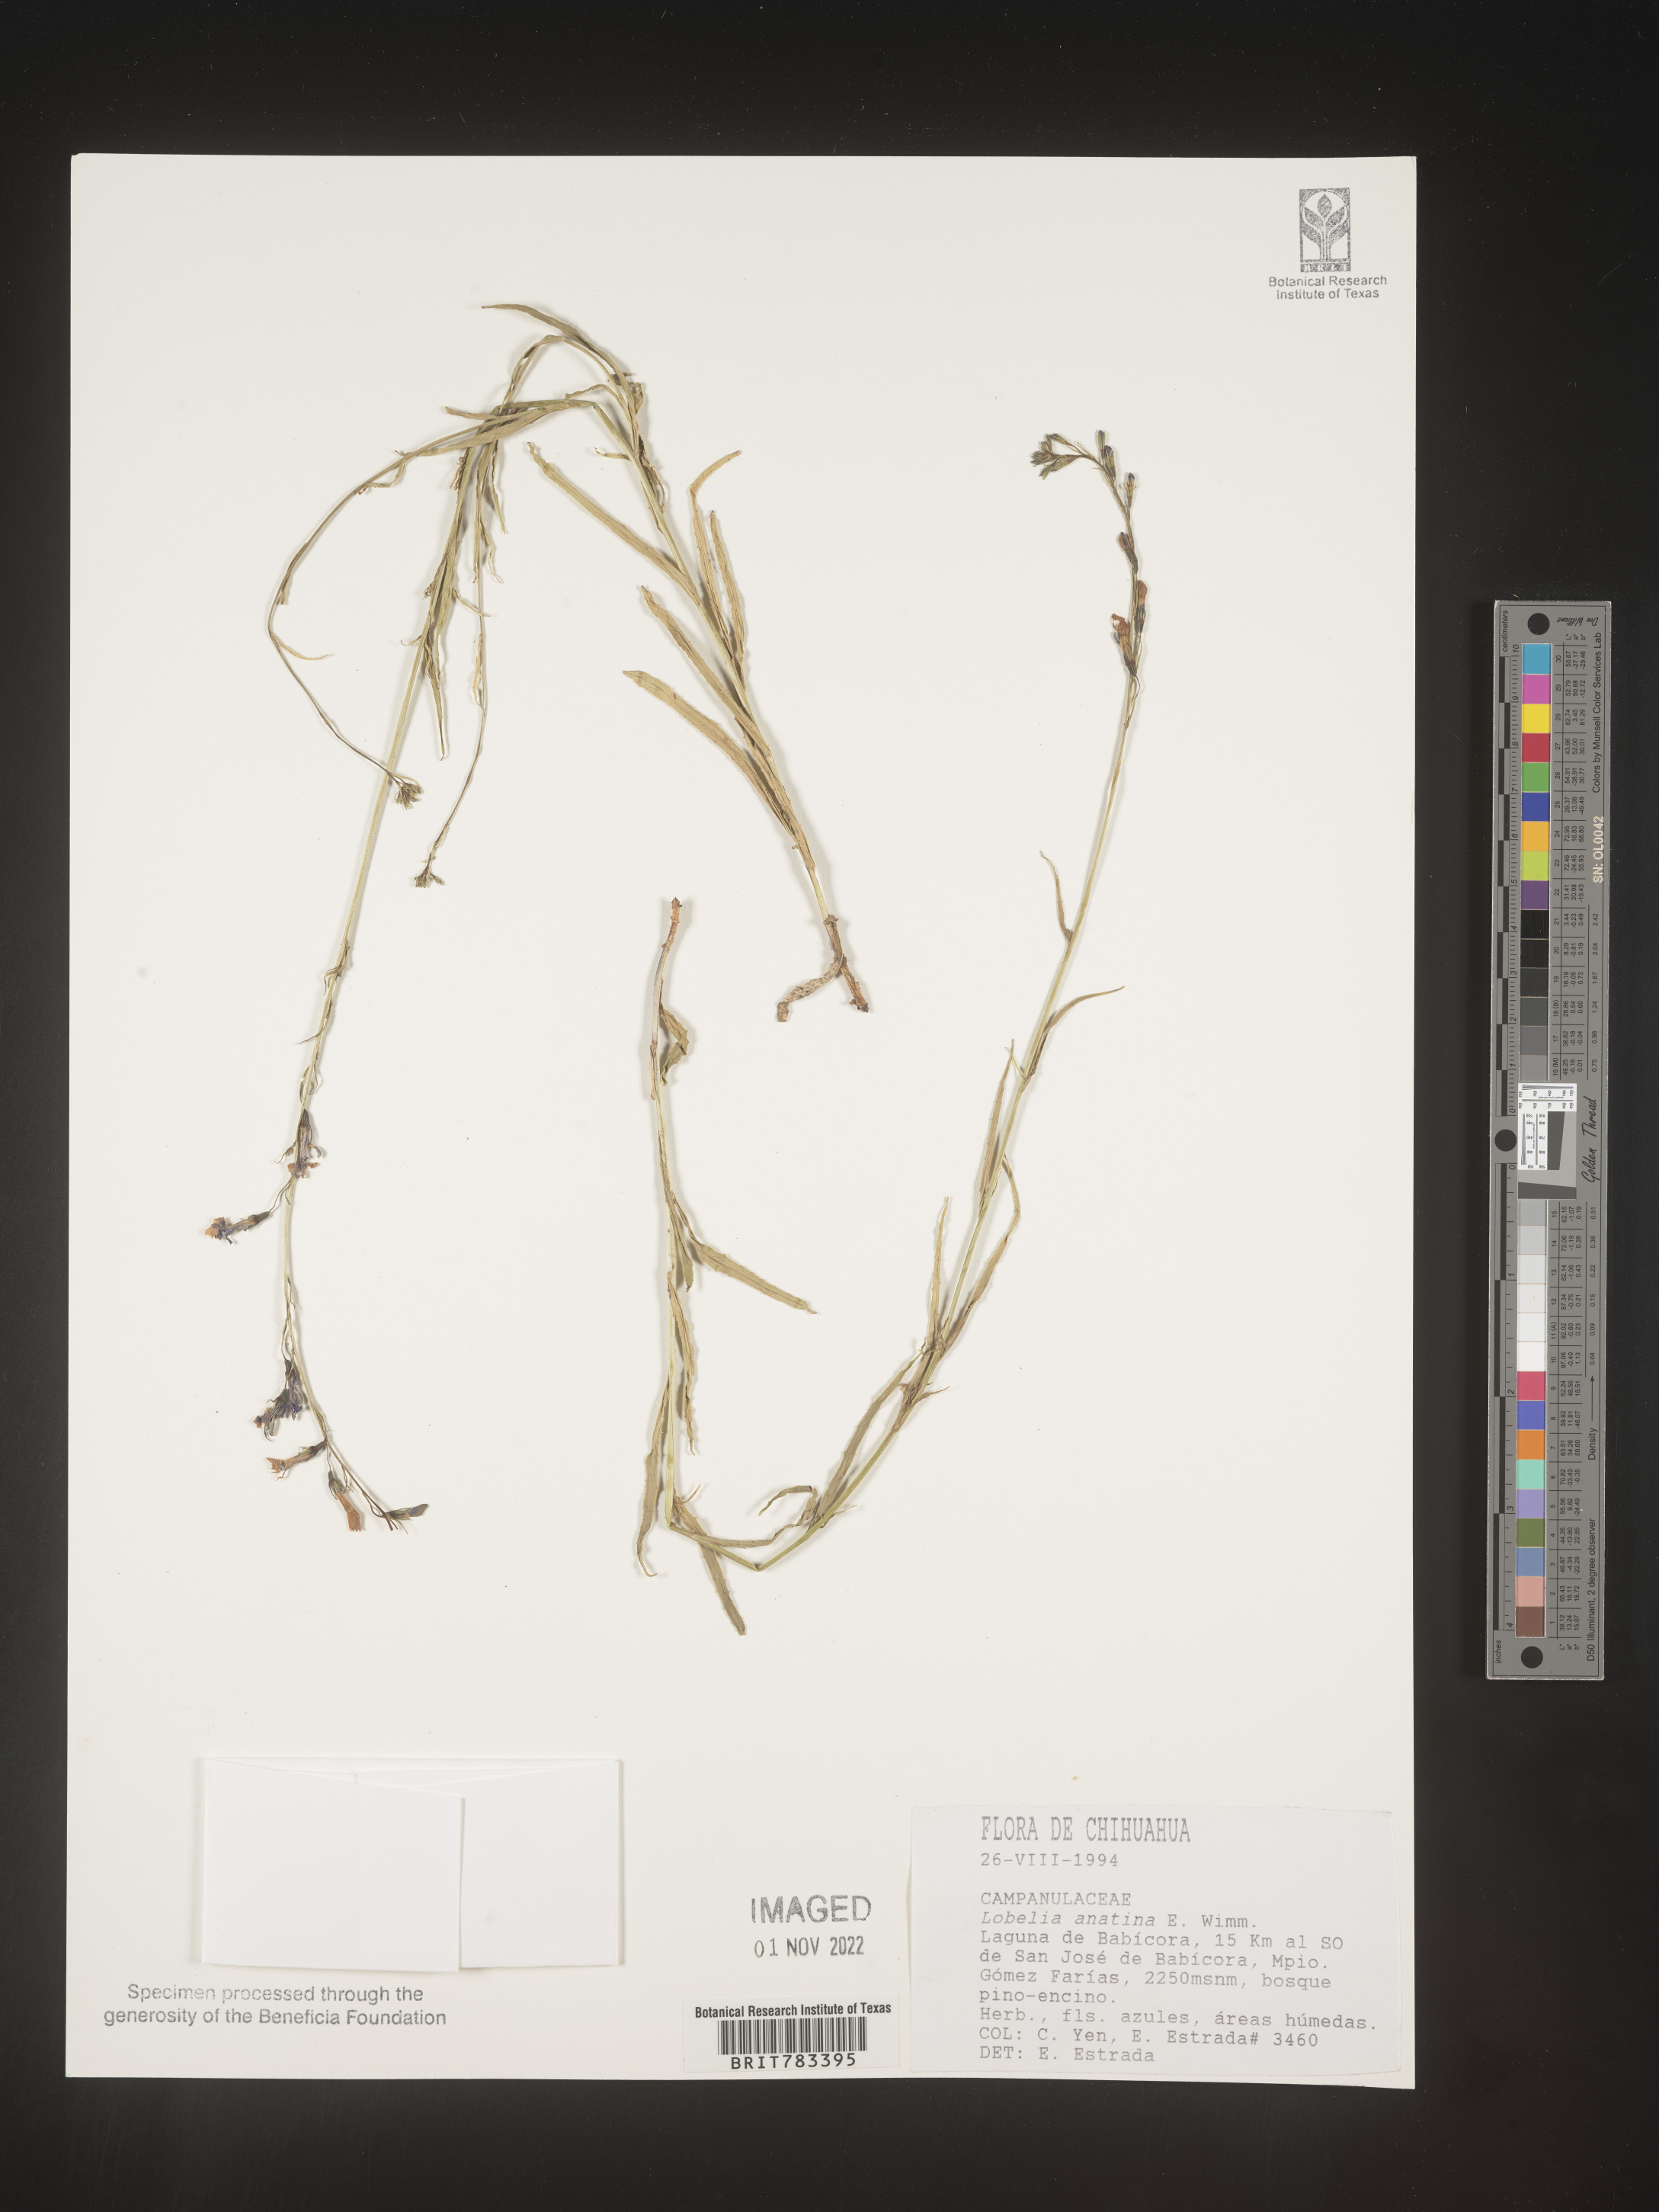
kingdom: Plantae
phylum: Tracheophyta
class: Magnoliopsida
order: Asterales
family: Campanulaceae
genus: Lobelia
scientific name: Lobelia
